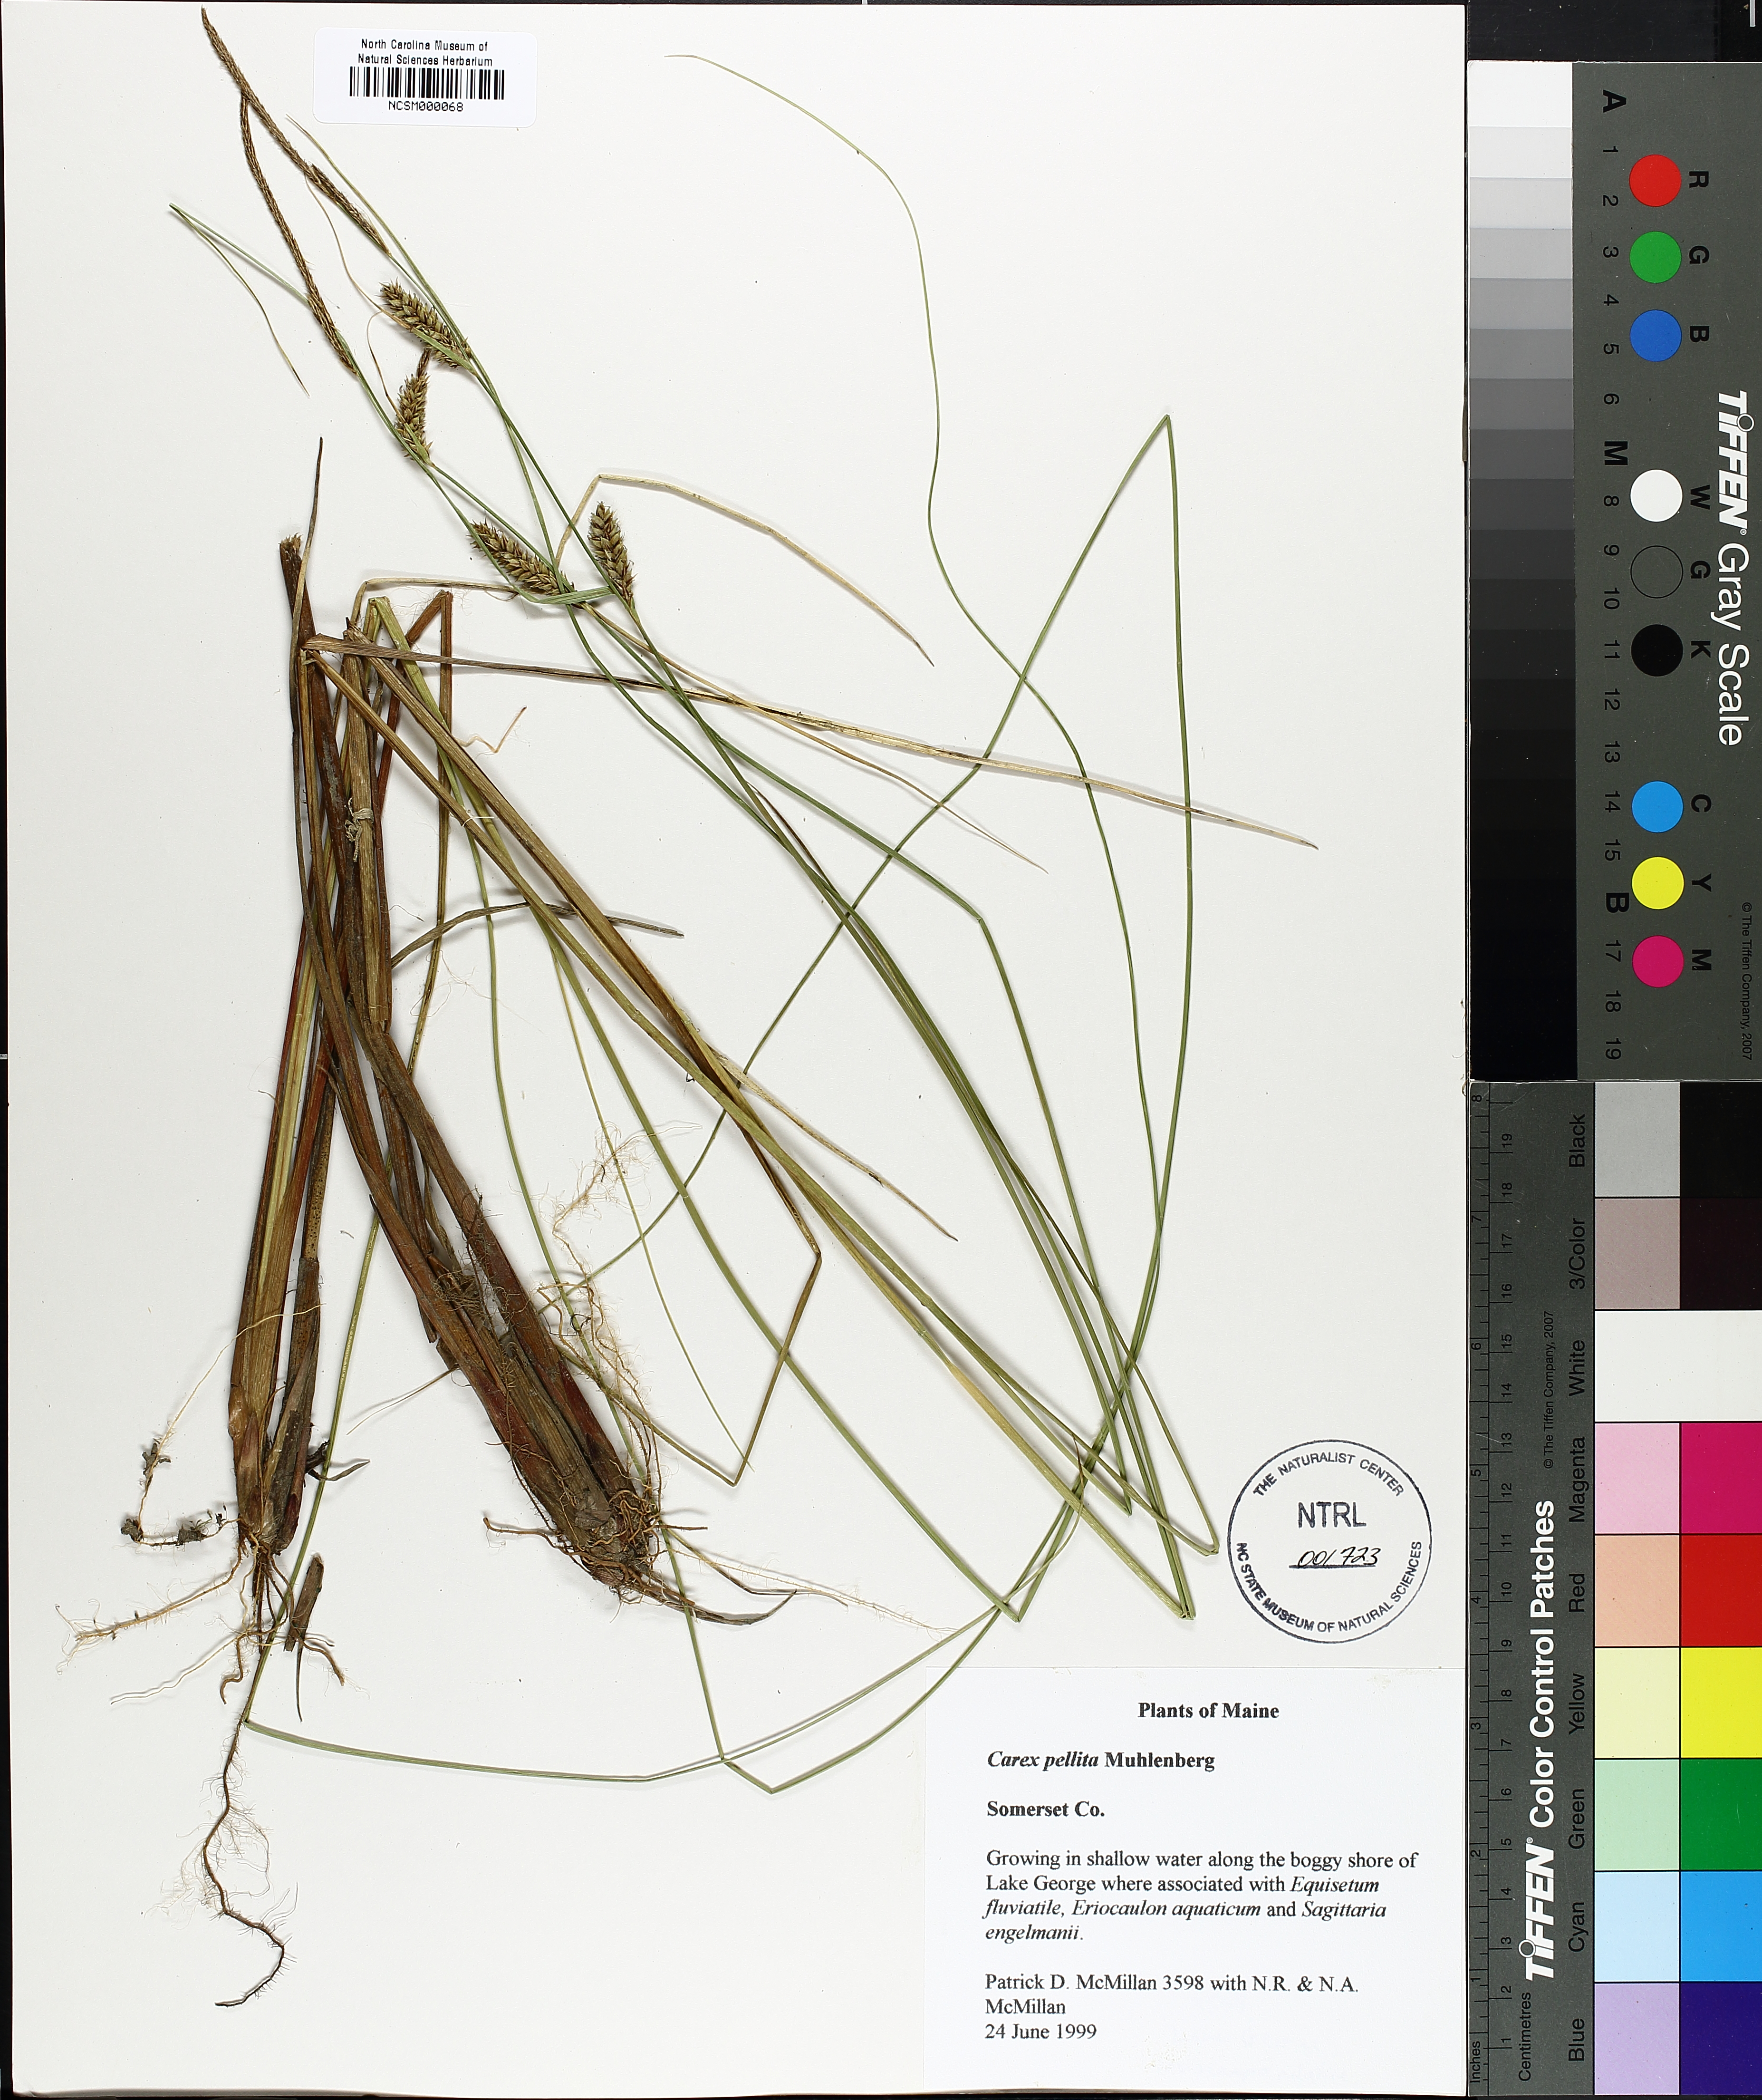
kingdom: Plantae
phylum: Tracheophyta
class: Liliopsida
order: Poales
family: Cyperaceae
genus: Carex
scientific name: Carex pellita
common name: Woolly sedge
